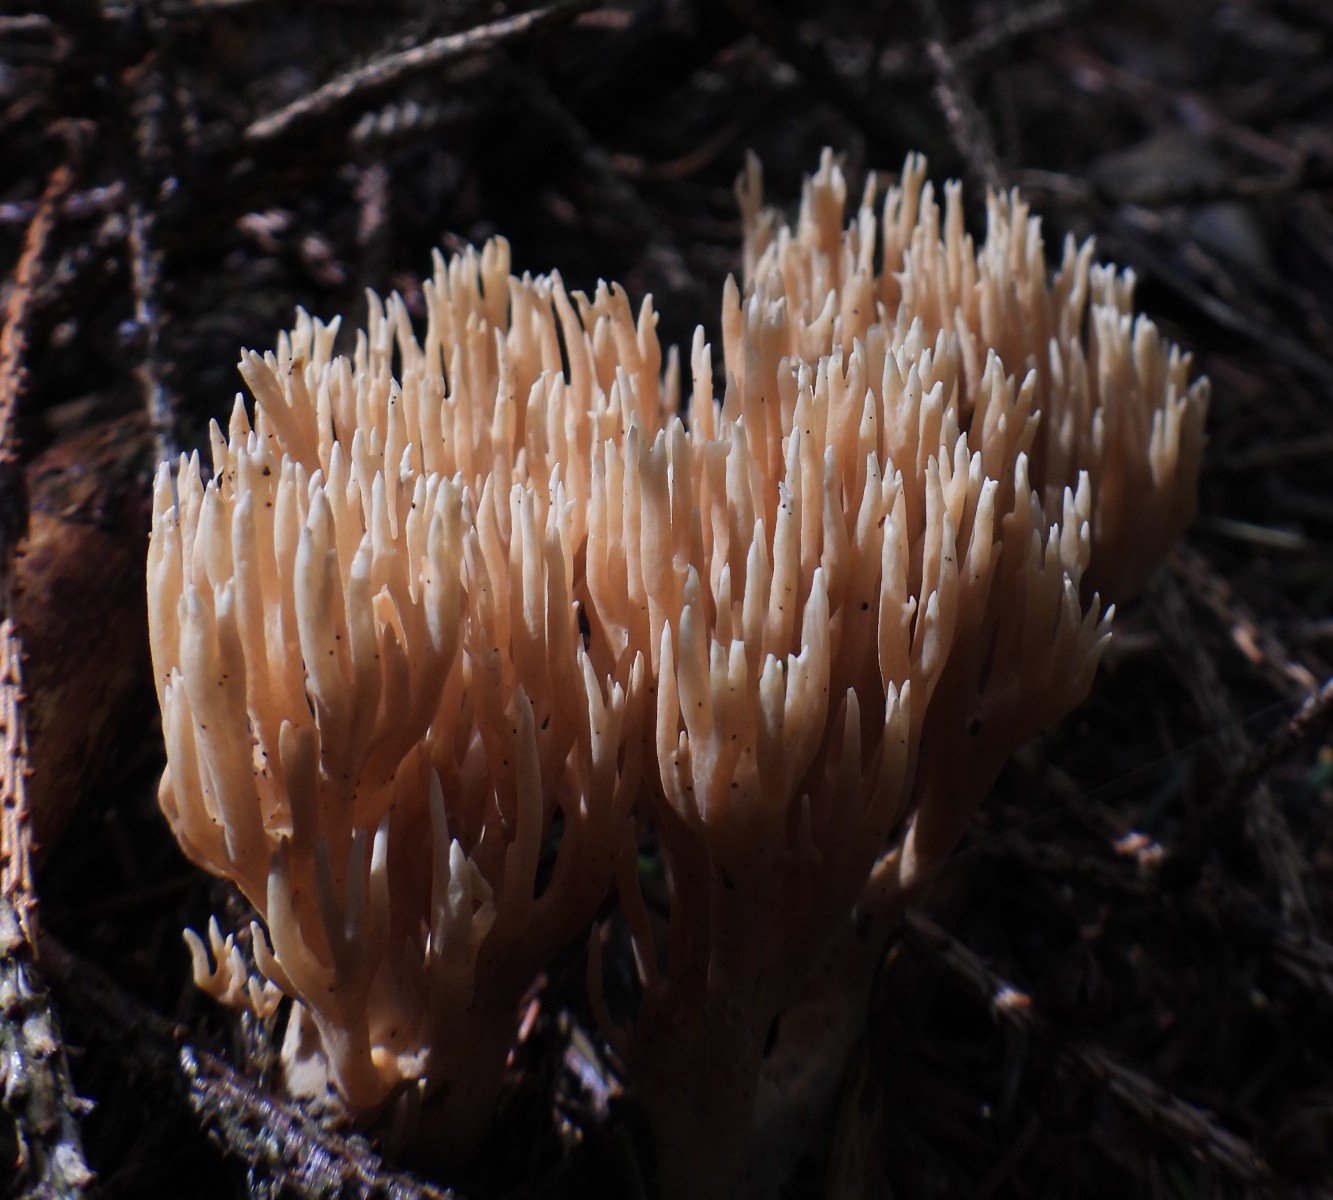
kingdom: Fungi
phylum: Basidiomycota
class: Agaricomycetes
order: Gomphales
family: Gomphaceae
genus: Phaeoclavulina
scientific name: Phaeoclavulina eumorpha
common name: gran-koralsvamp
